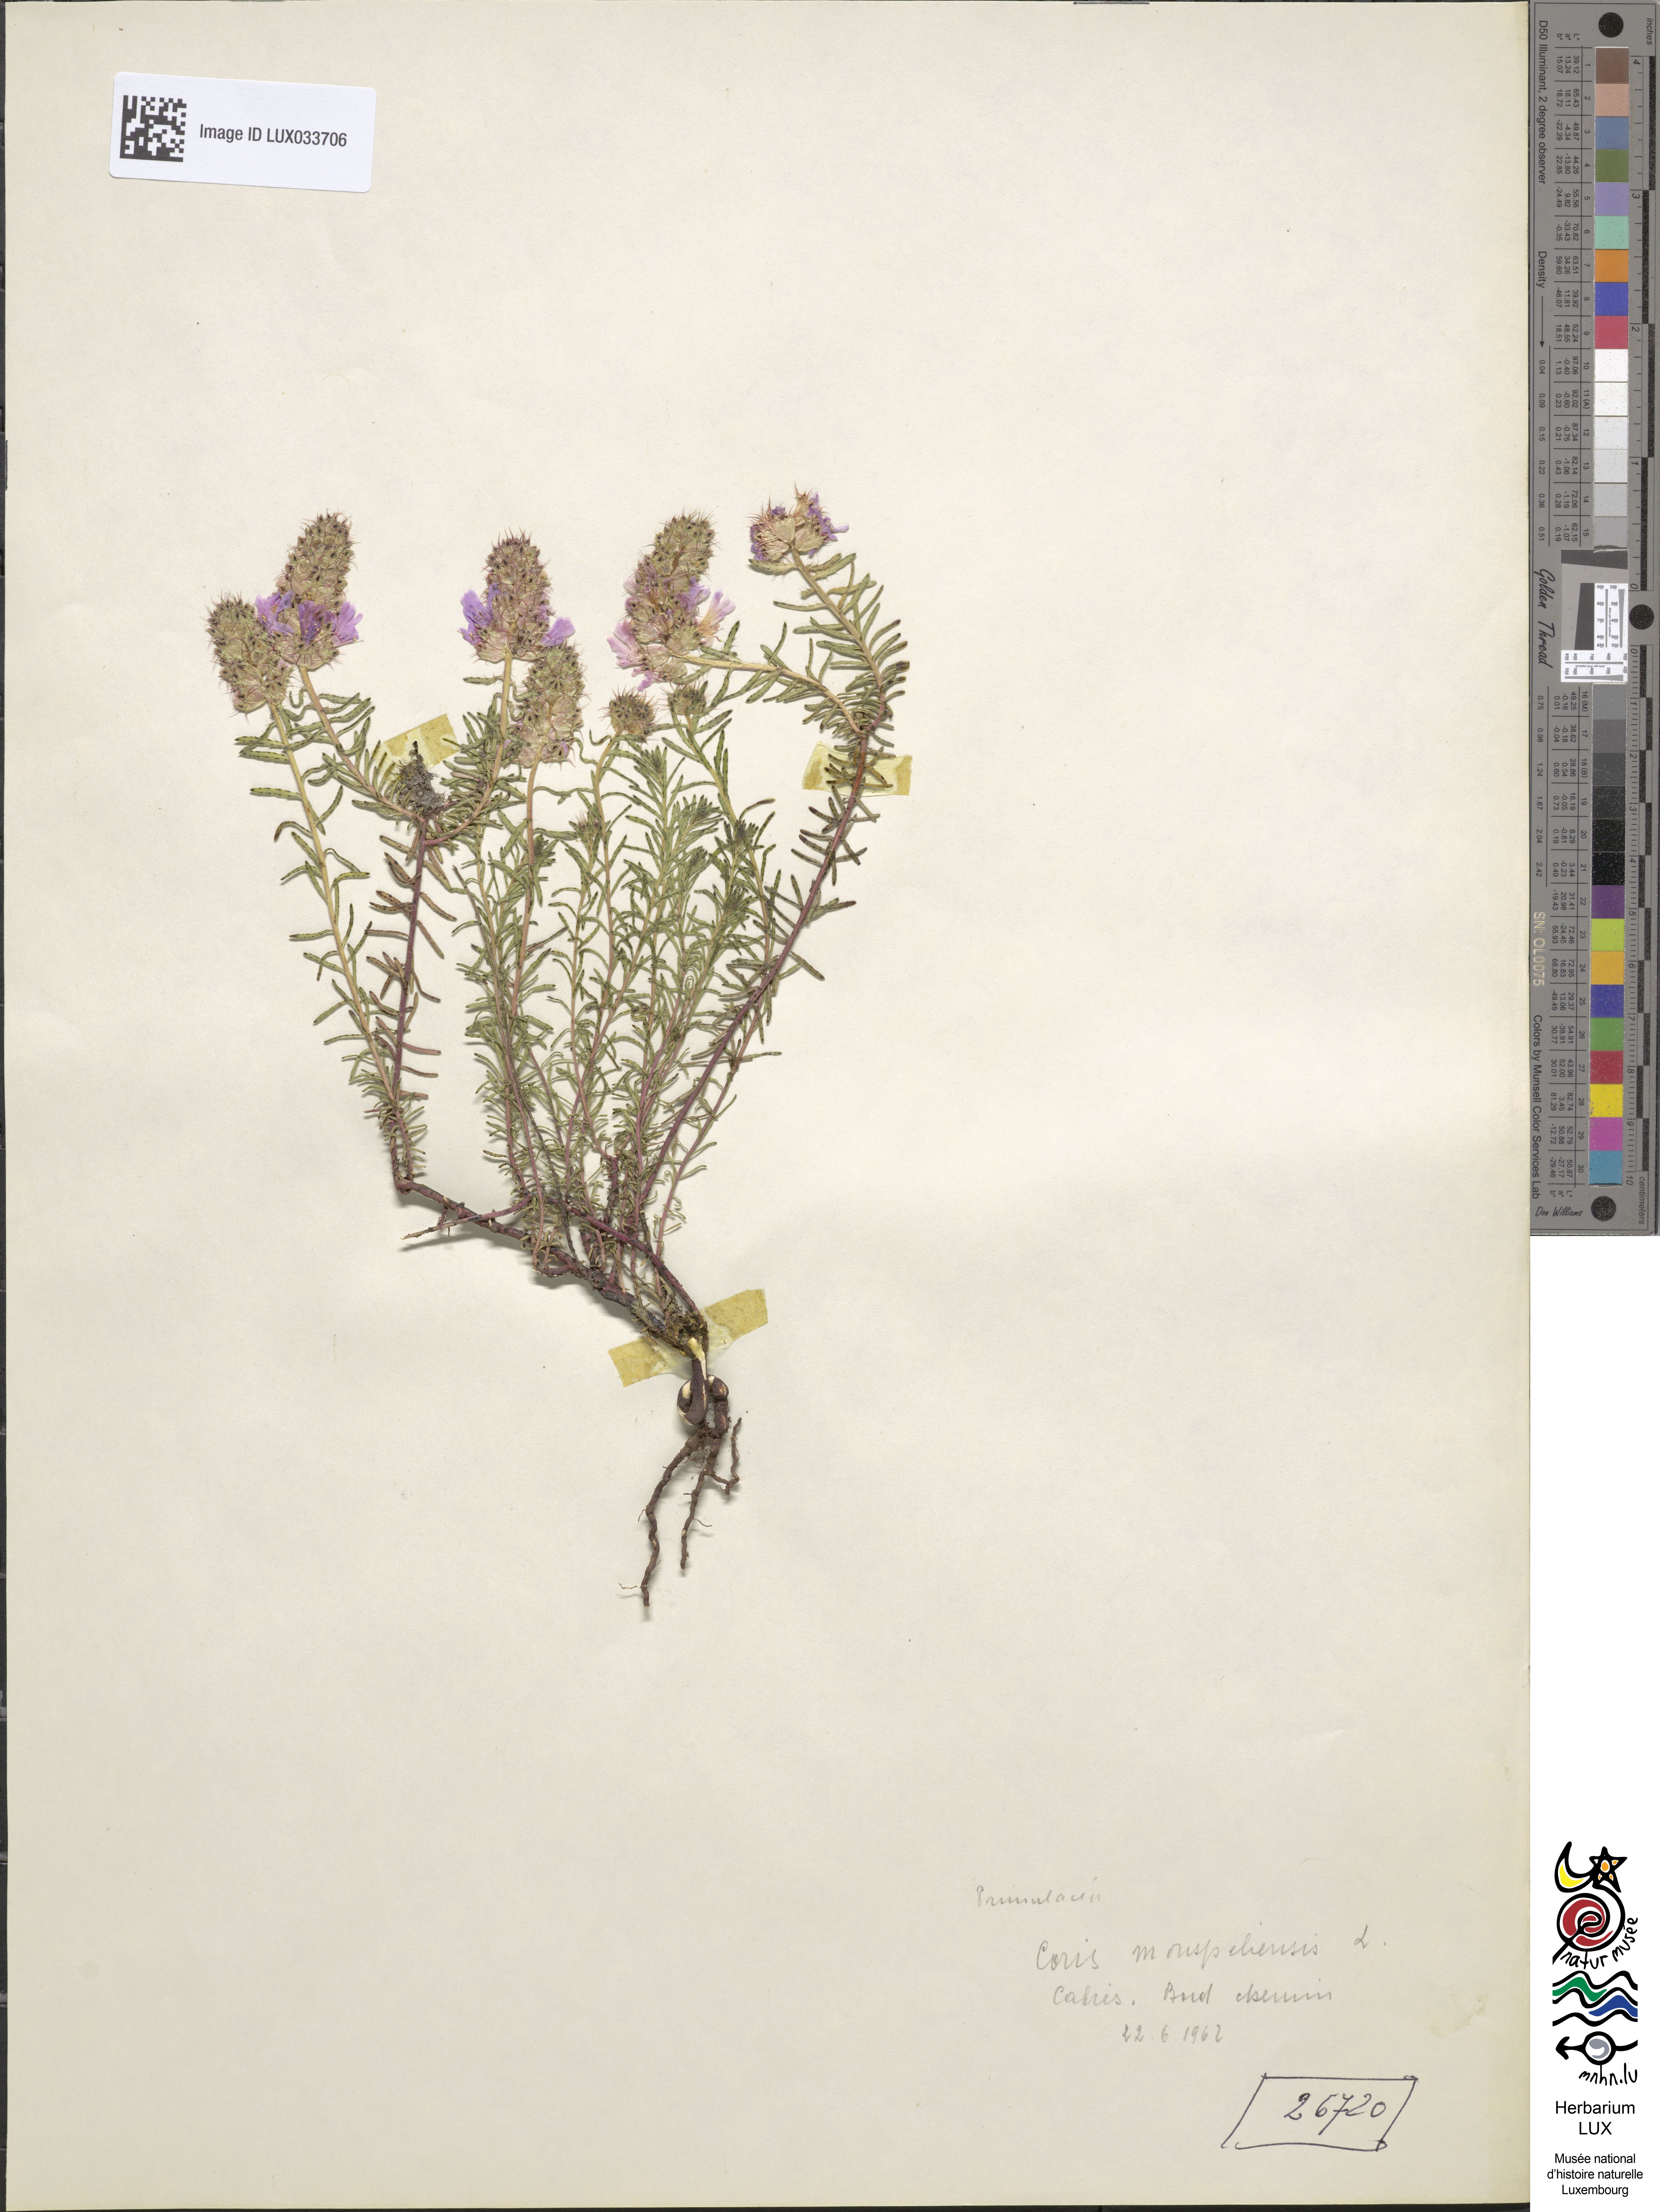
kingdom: Plantae
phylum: Tracheophyta
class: Magnoliopsida
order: Ericales
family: Primulaceae
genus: Coris
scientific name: Coris monspeliensis
